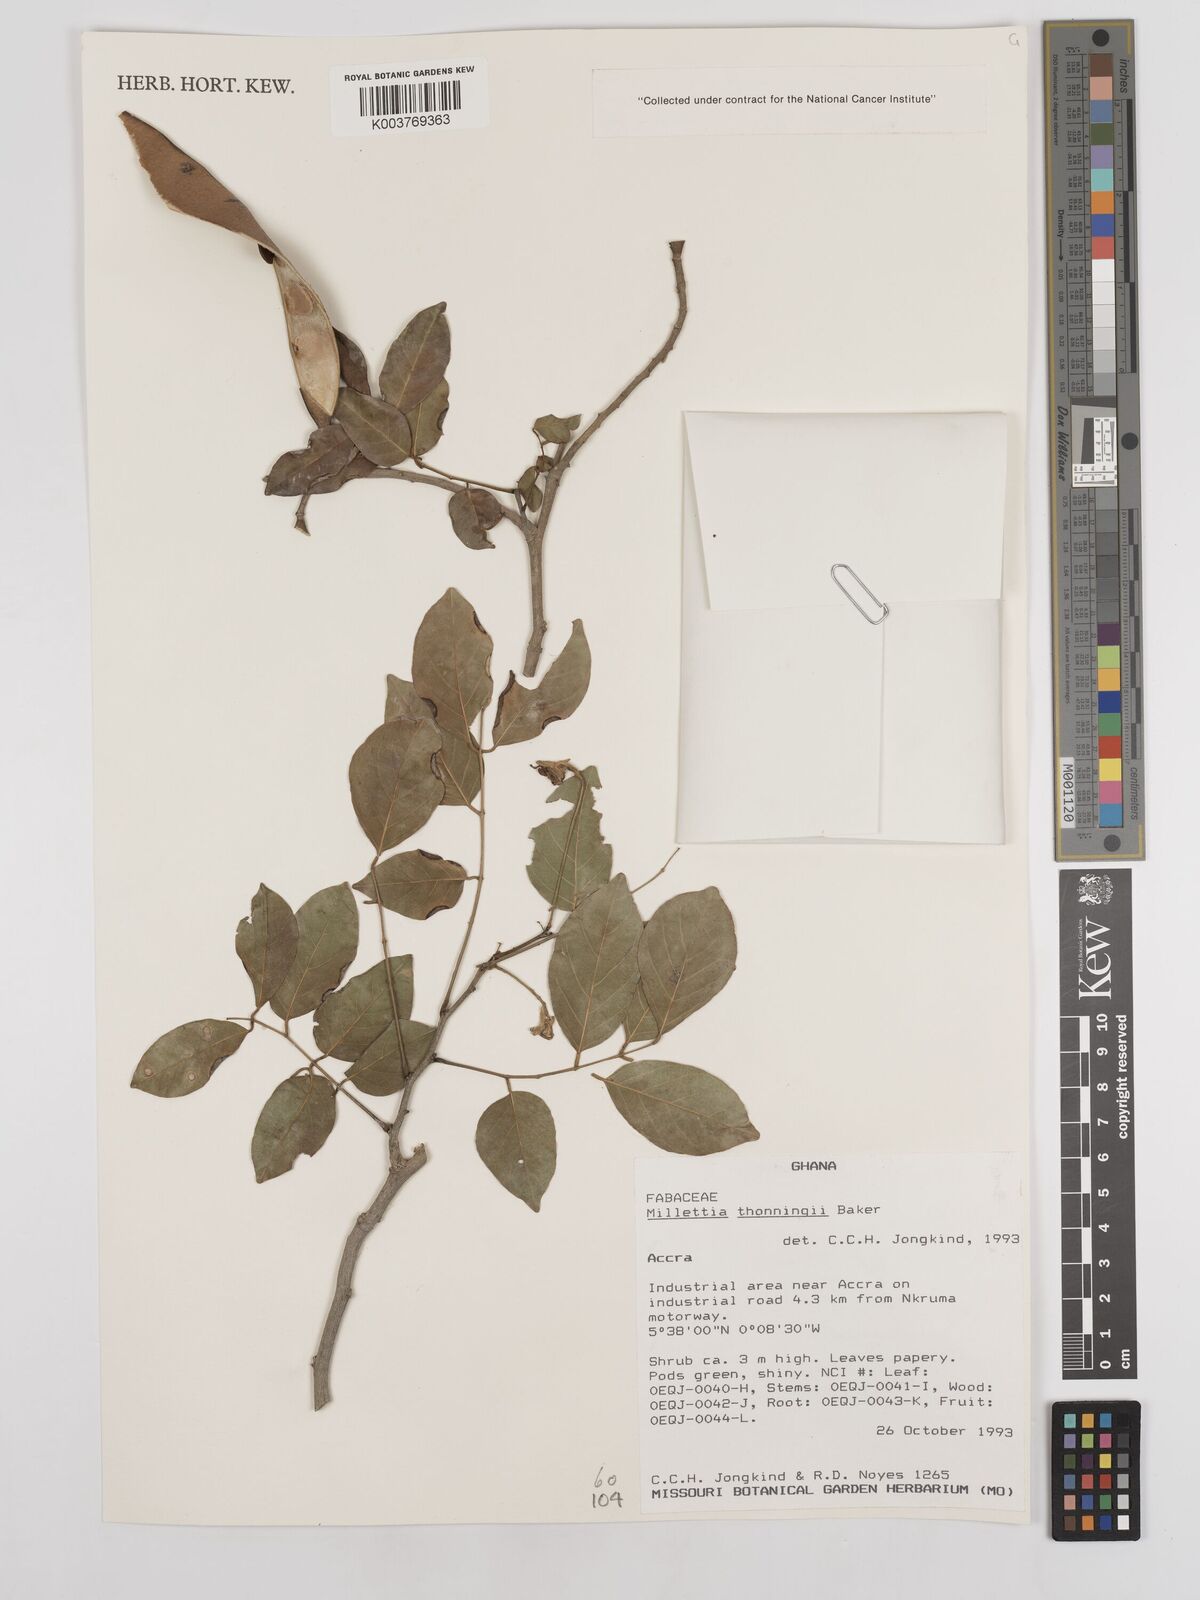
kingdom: Plantae
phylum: Tracheophyta
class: Magnoliopsida
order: Fabales
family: Fabaceae
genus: Millettia
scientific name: Millettia thonningii
